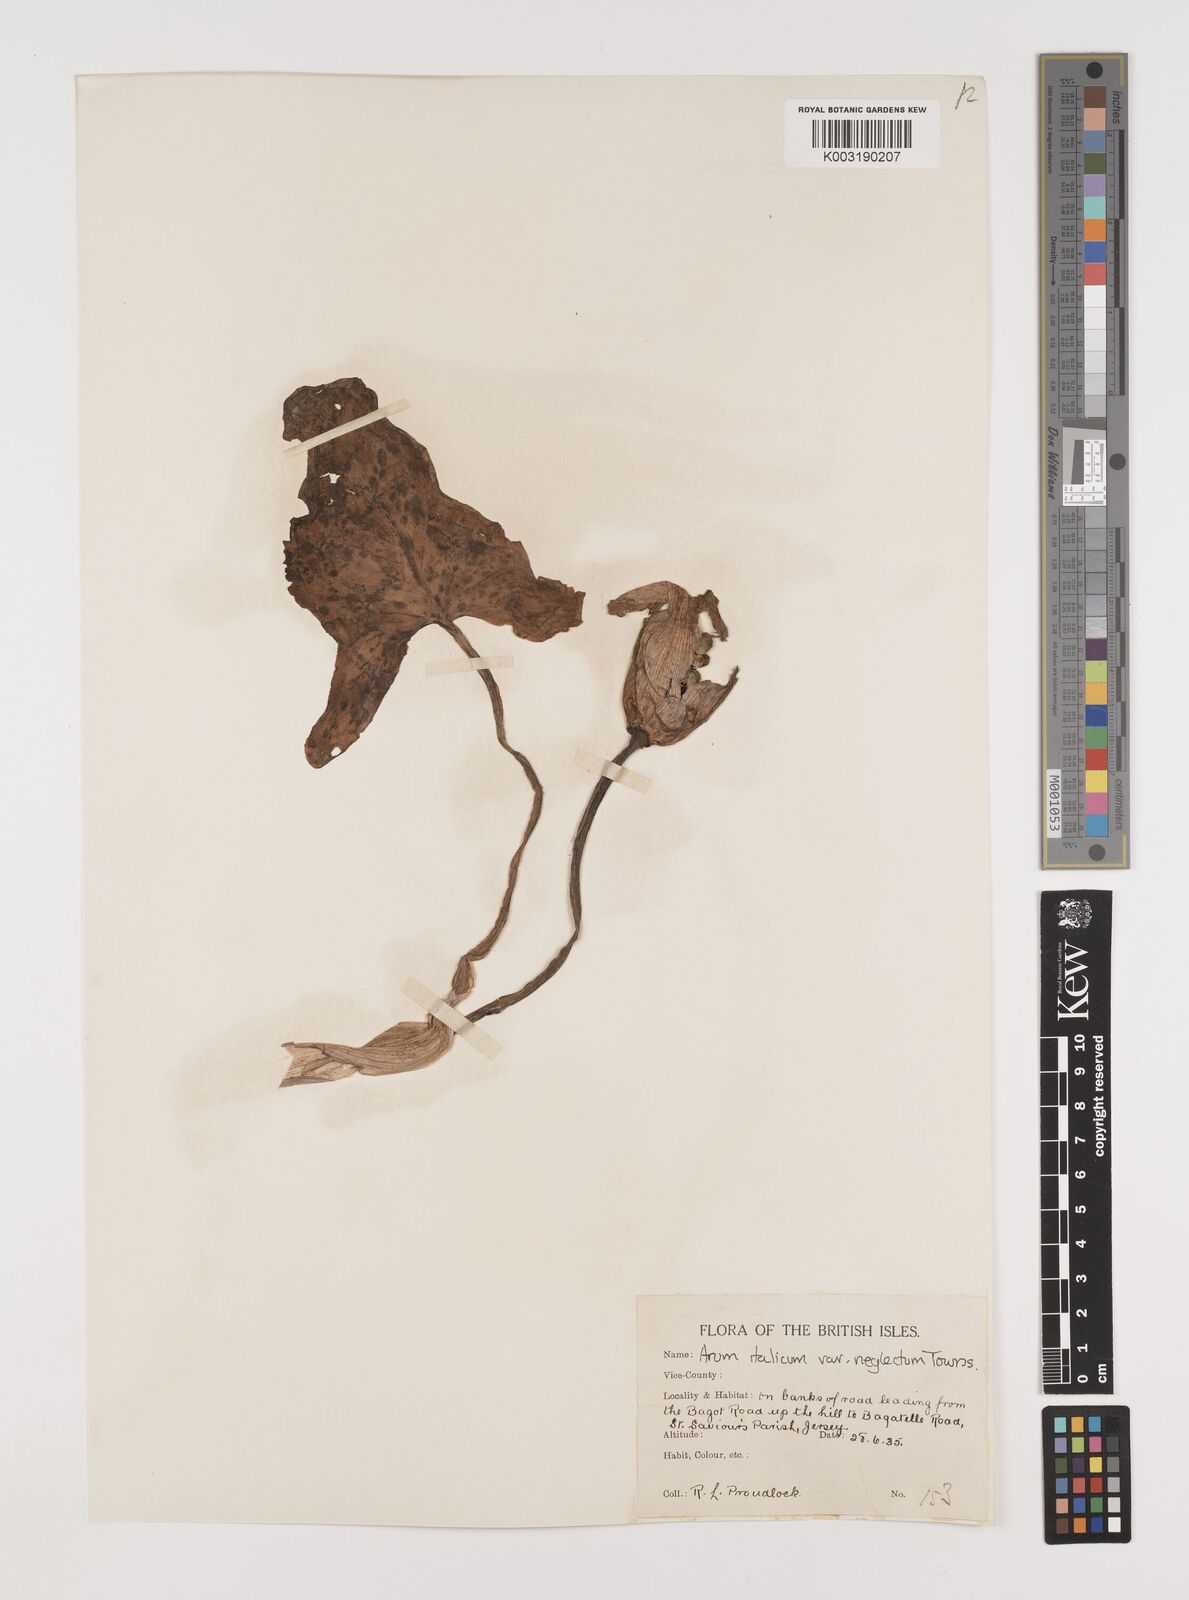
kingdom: Plantae
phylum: Tracheophyta
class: Liliopsida
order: Alismatales
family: Araceae
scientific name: Araceae
